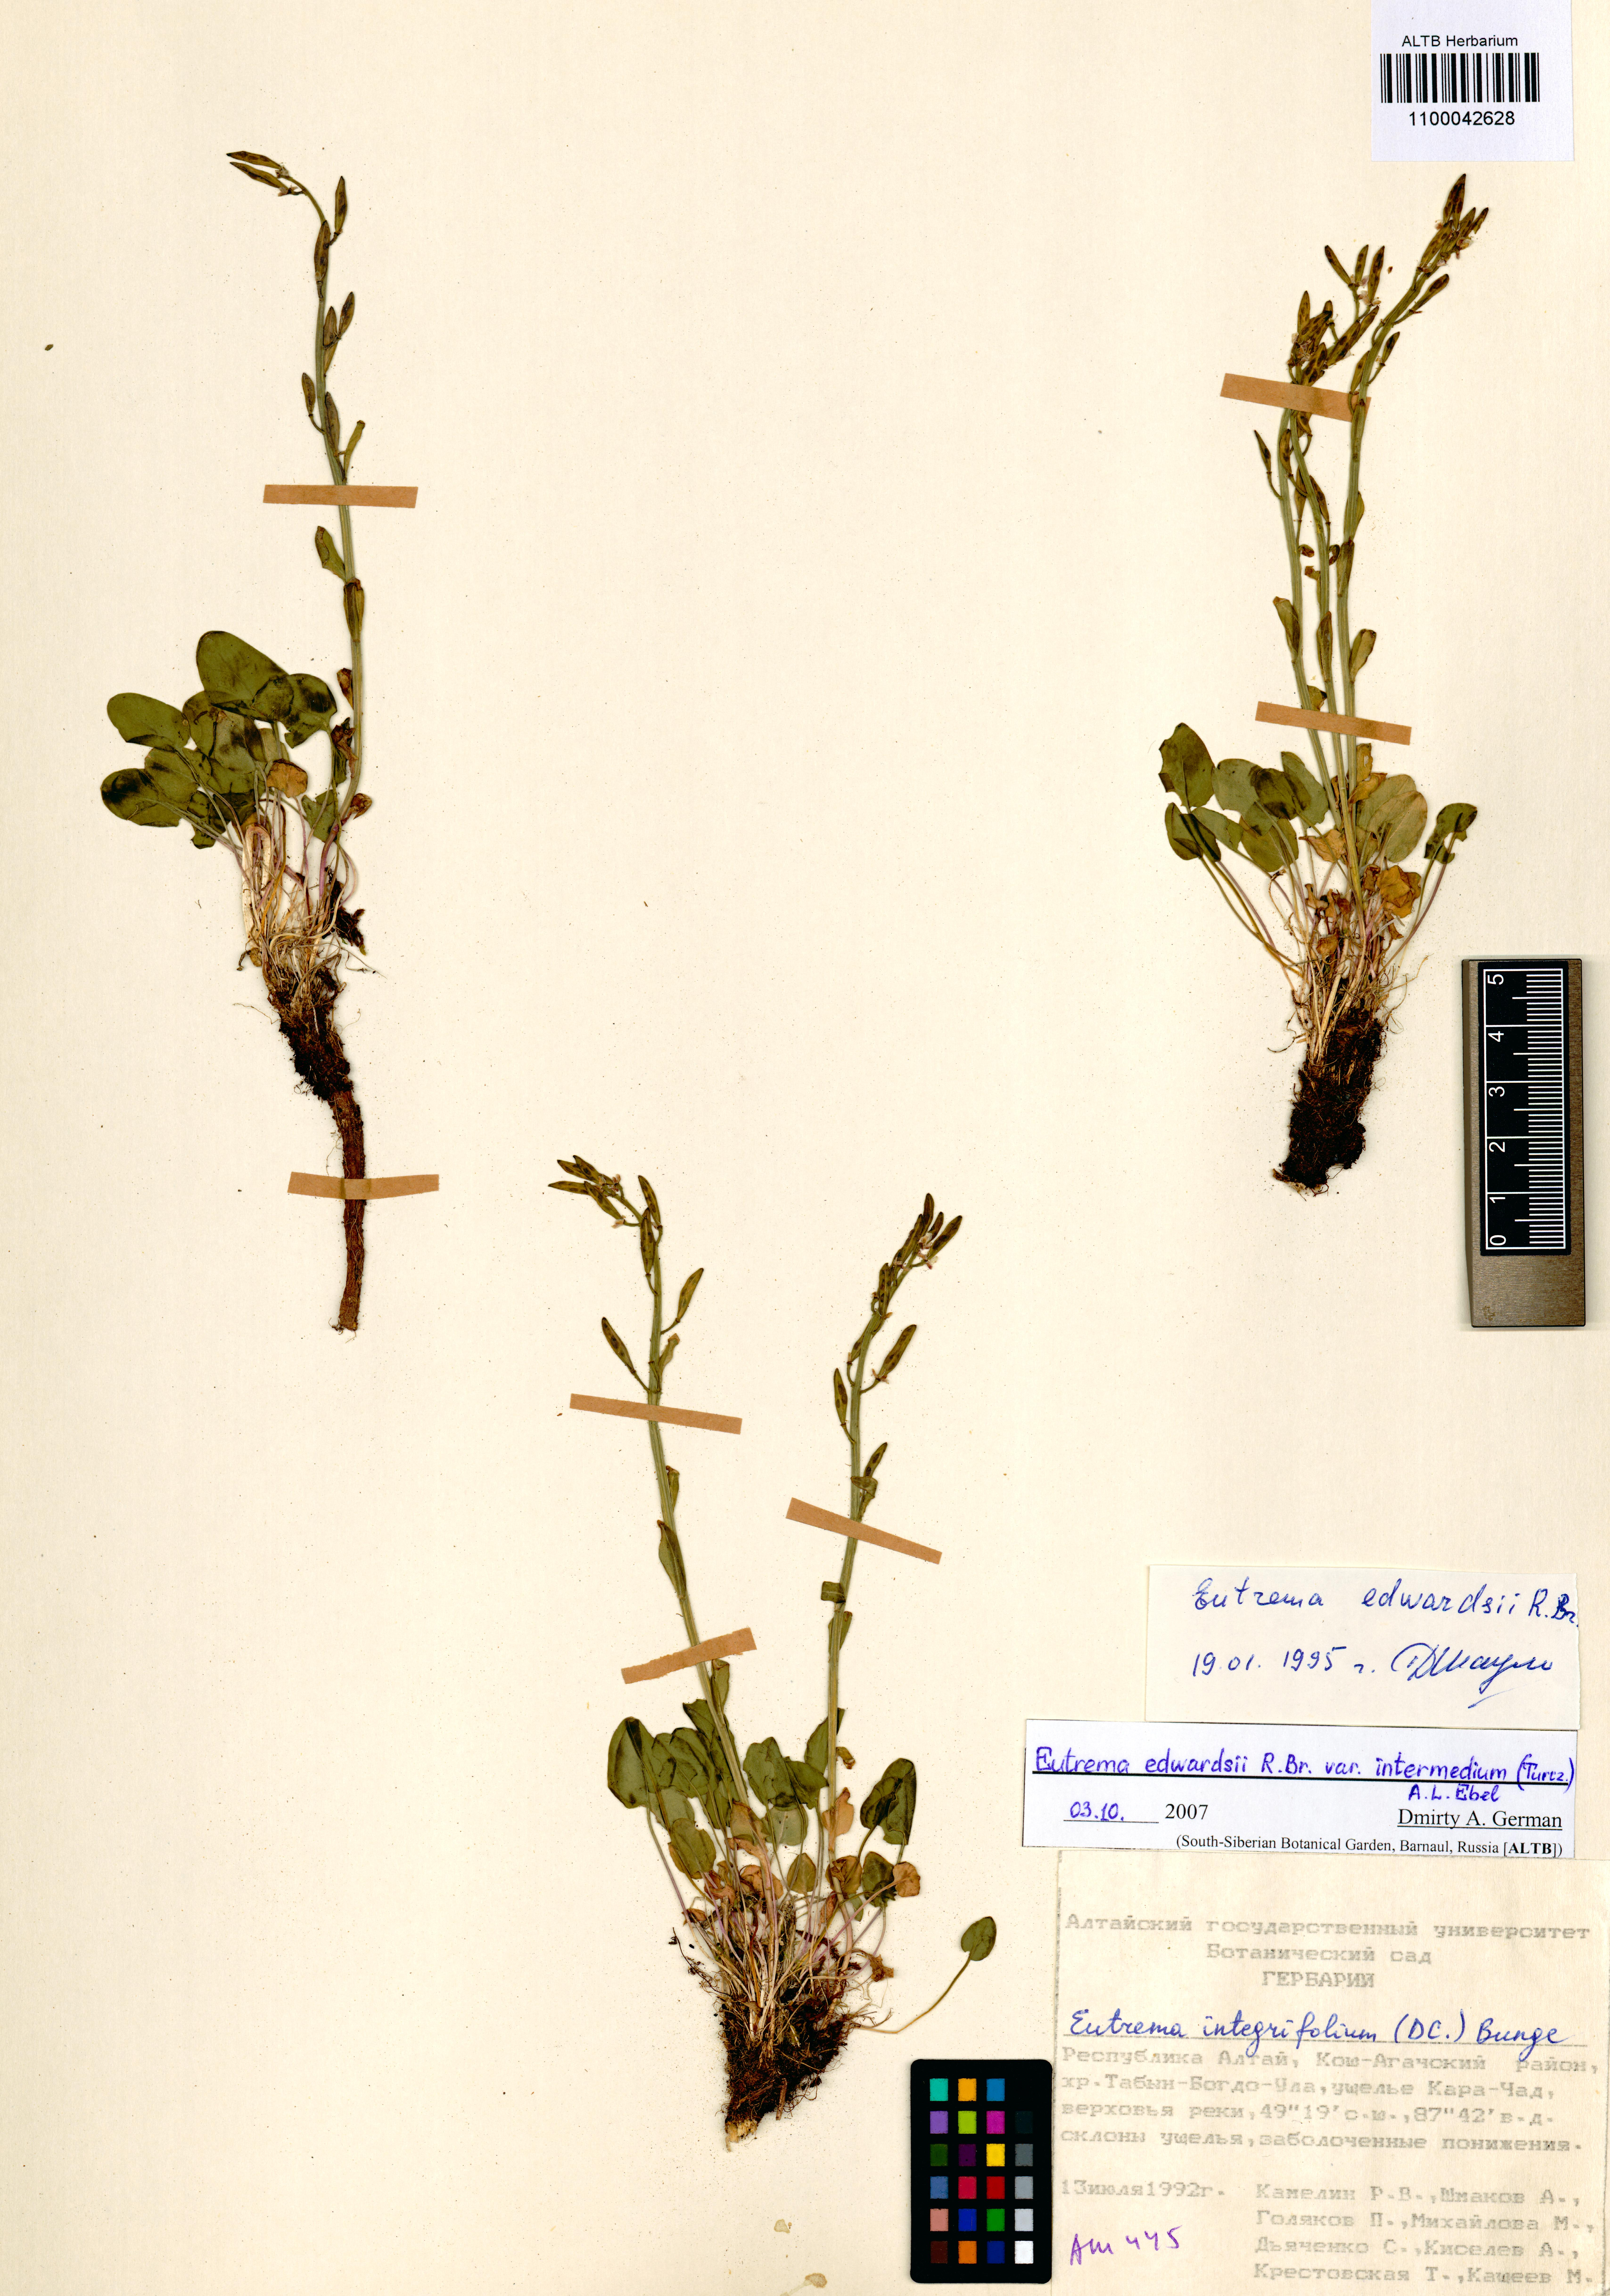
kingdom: Plantae
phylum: Tracheophyta
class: Magnoliopsida
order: Brassicales
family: Brassicaceae
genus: Eutrema
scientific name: Eutrema edwardsii
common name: Penland alpine fen mustard
